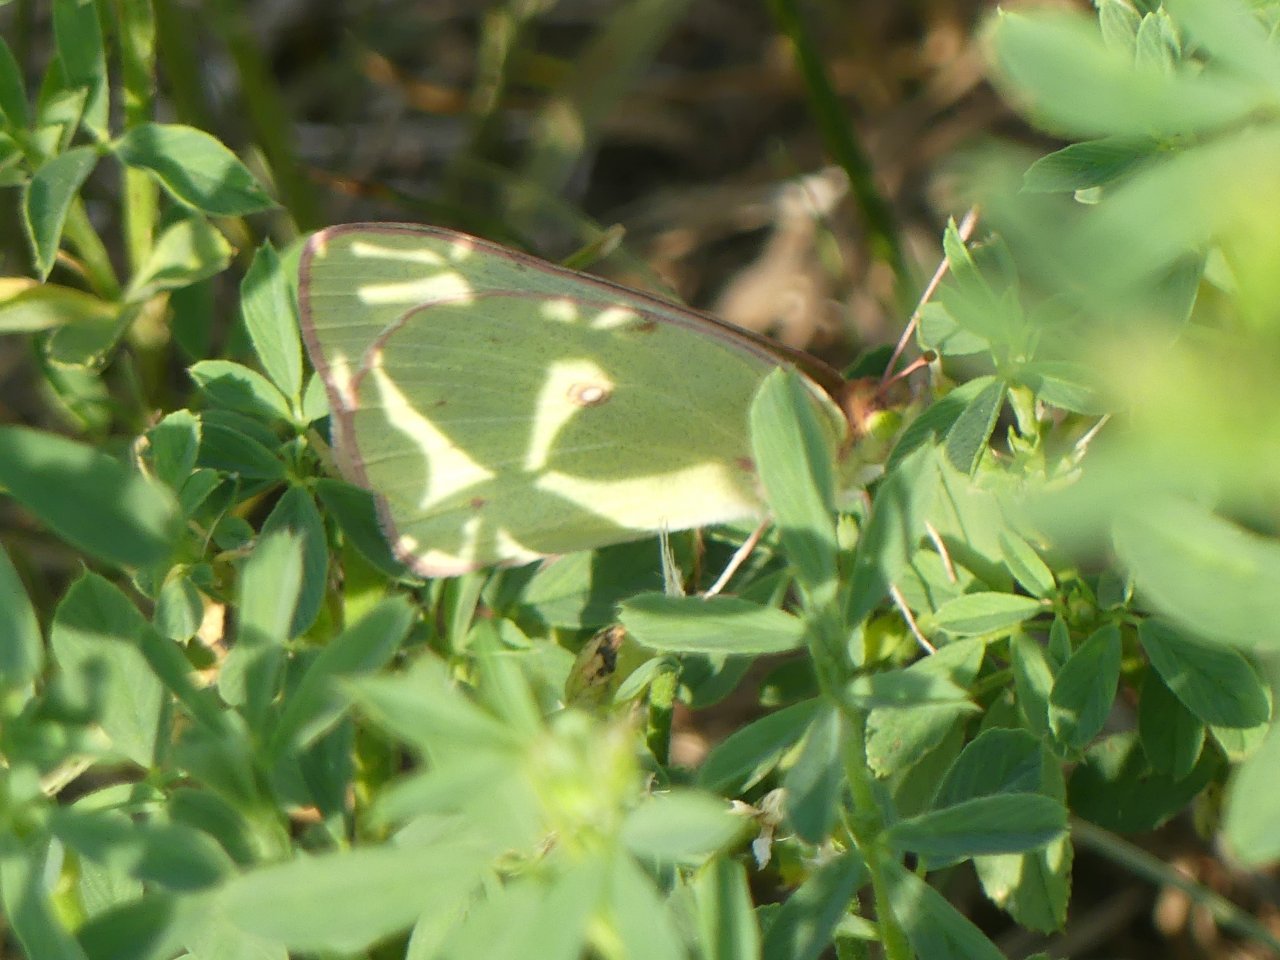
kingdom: Animalia
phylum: Arthropoda
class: Insecta
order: Lepidoptera
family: Pieridae
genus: Colias
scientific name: Colias philodice
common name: Clouded Sulphur
